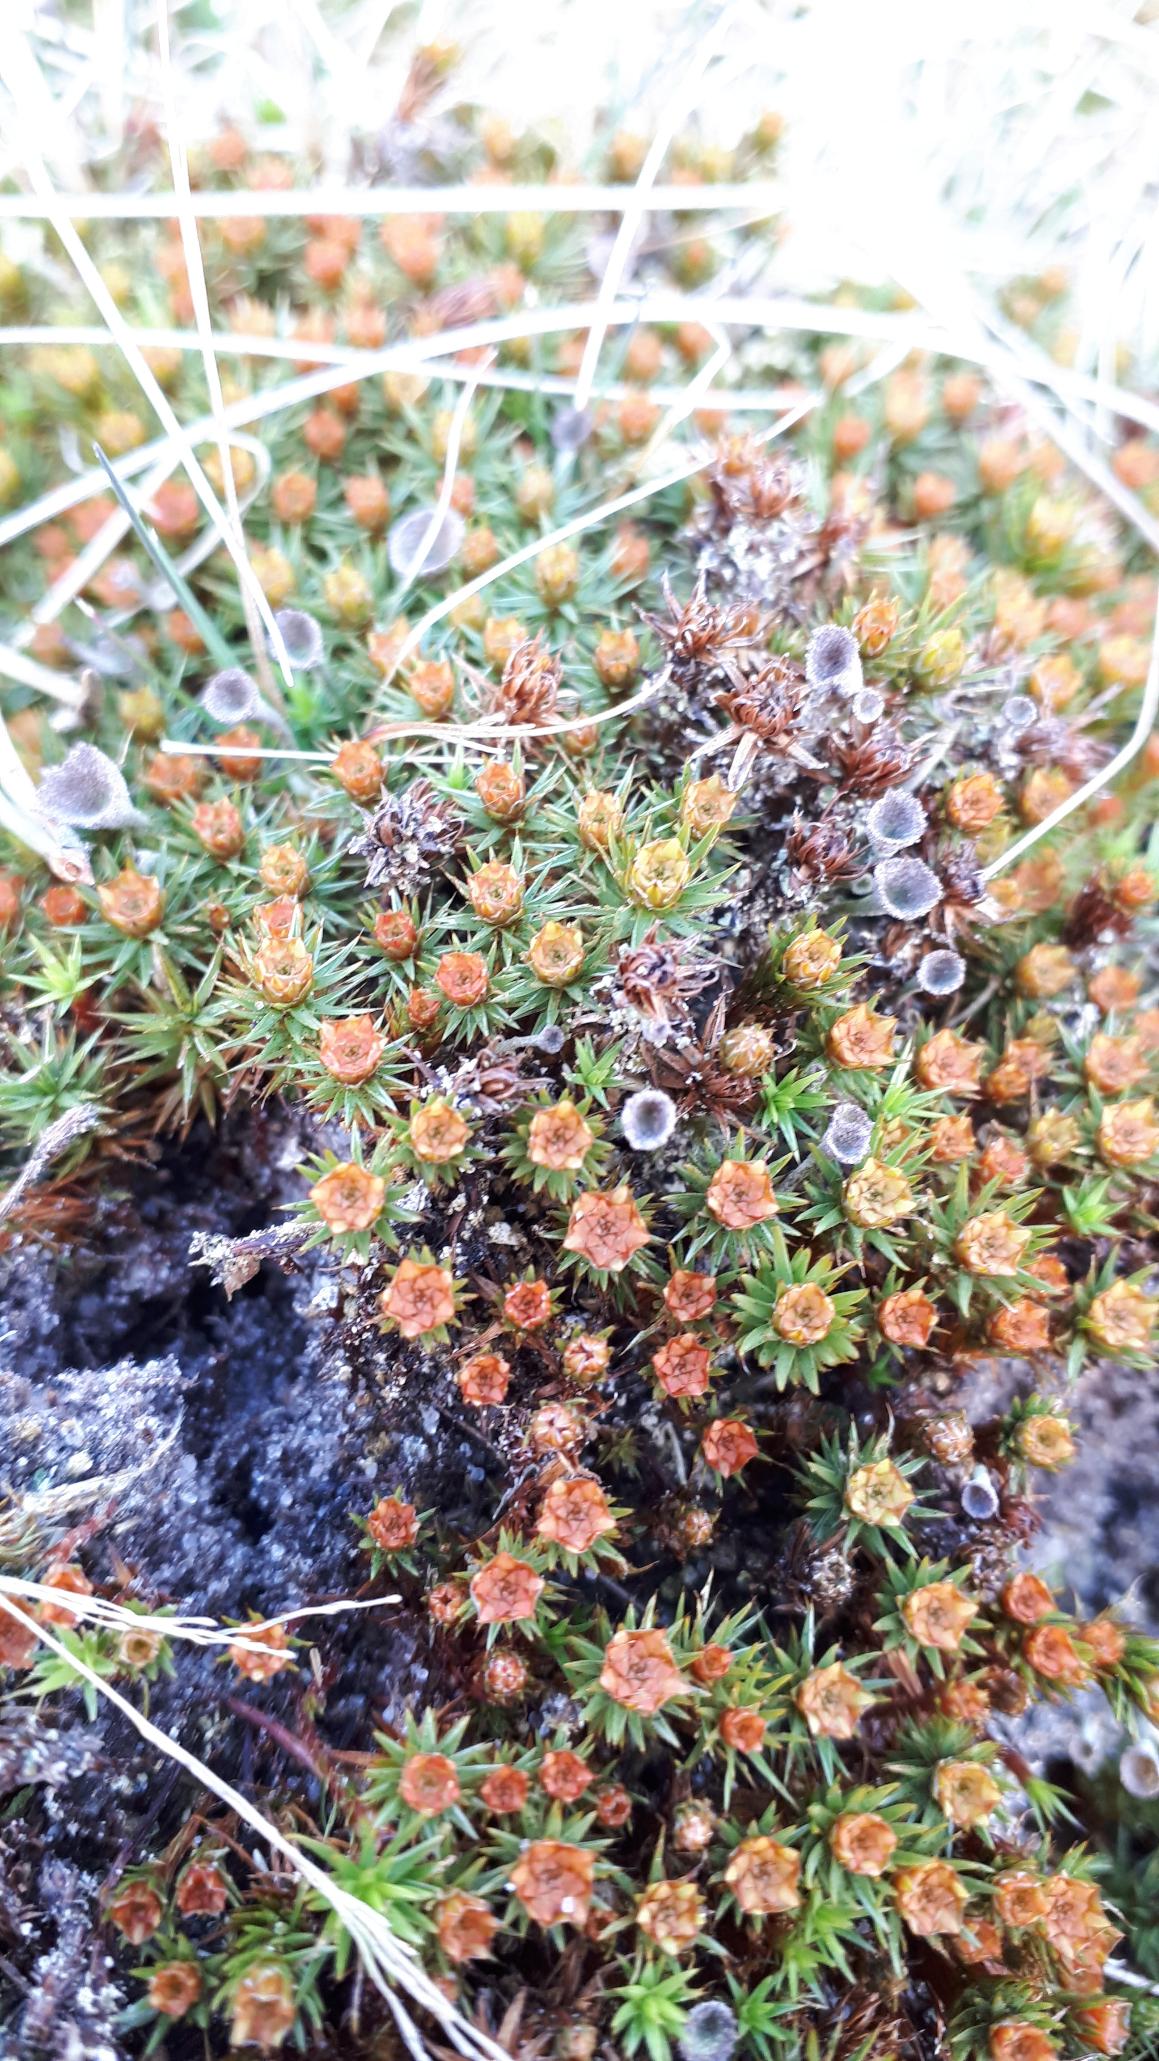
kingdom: Plantae
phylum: Bryophyta
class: Polytrichopsida
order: Polytrichales
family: Polytrichaceae
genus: Polytrichum
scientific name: Polytrichum piliferum
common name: Hårspidset jomfruhår
